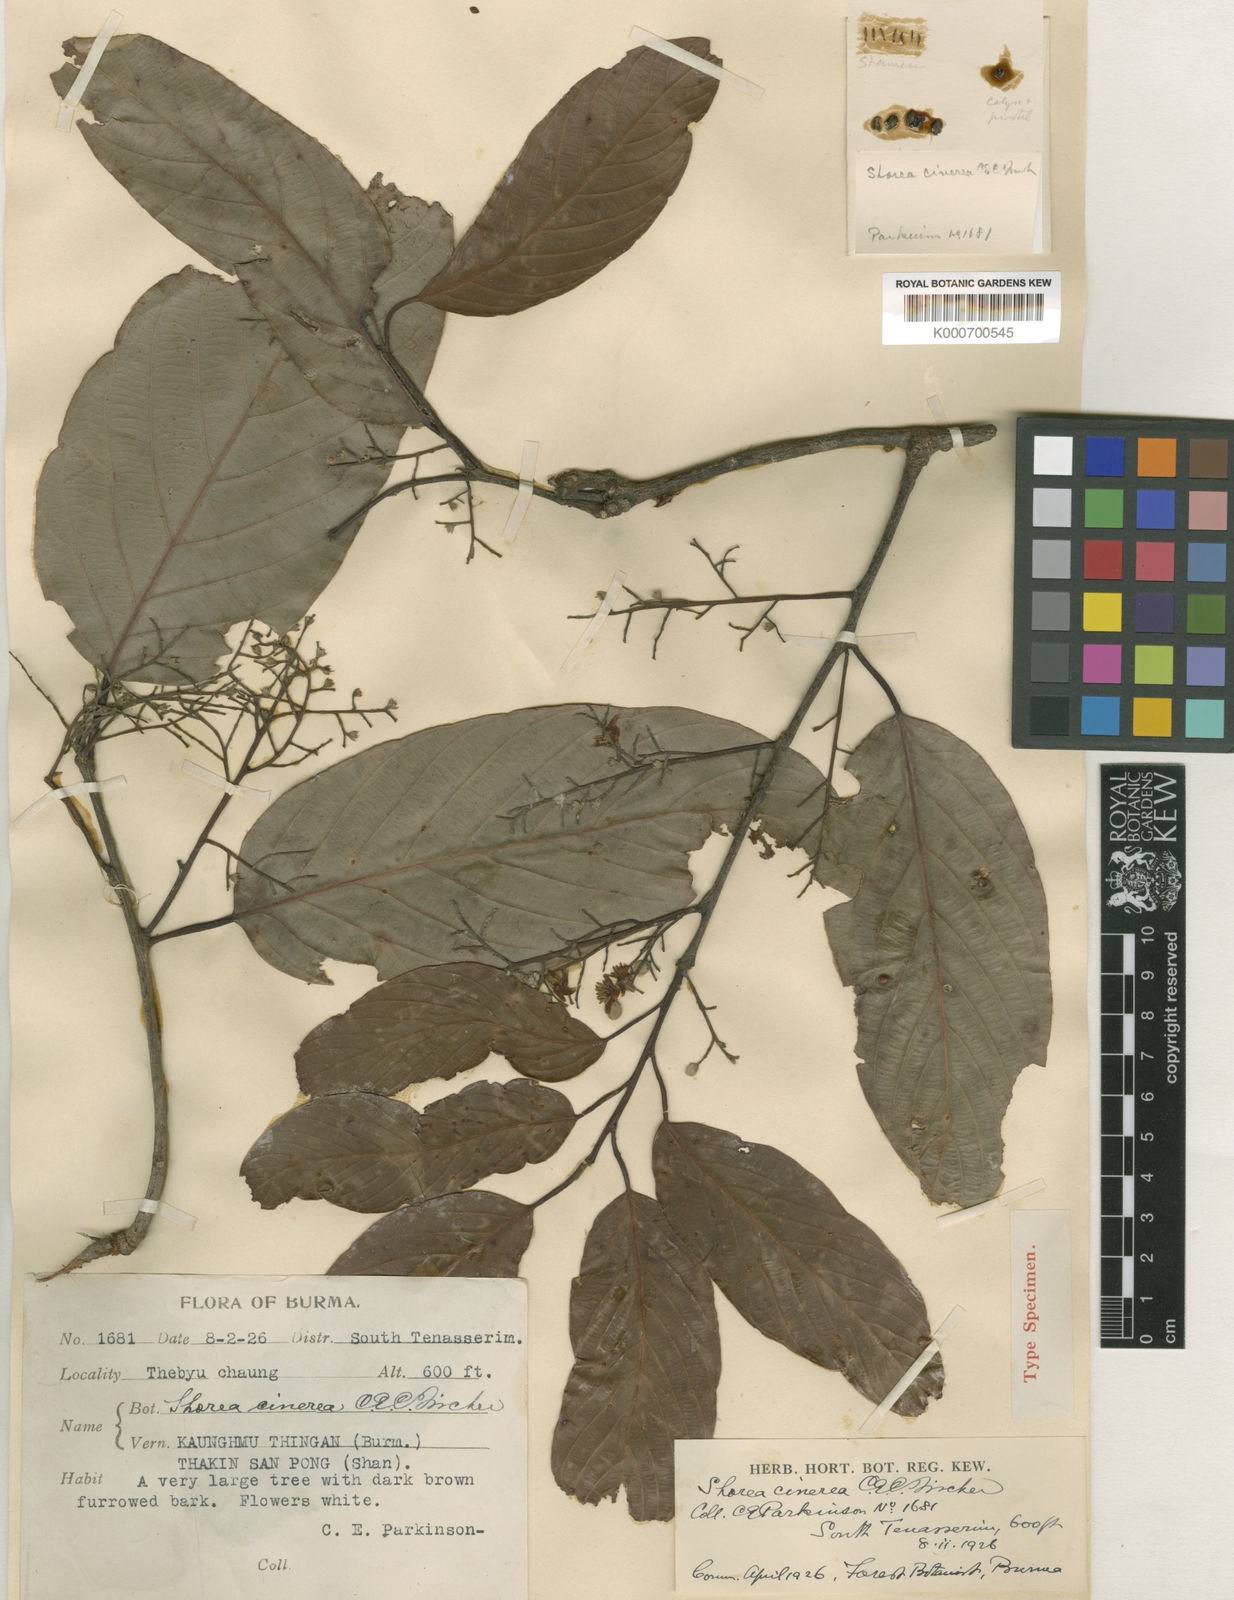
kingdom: Plantae
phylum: Tracheophyta
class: Magnoliopsida
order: Malvales
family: Dipterocarpaceae
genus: Parashorea
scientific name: Parashorea
